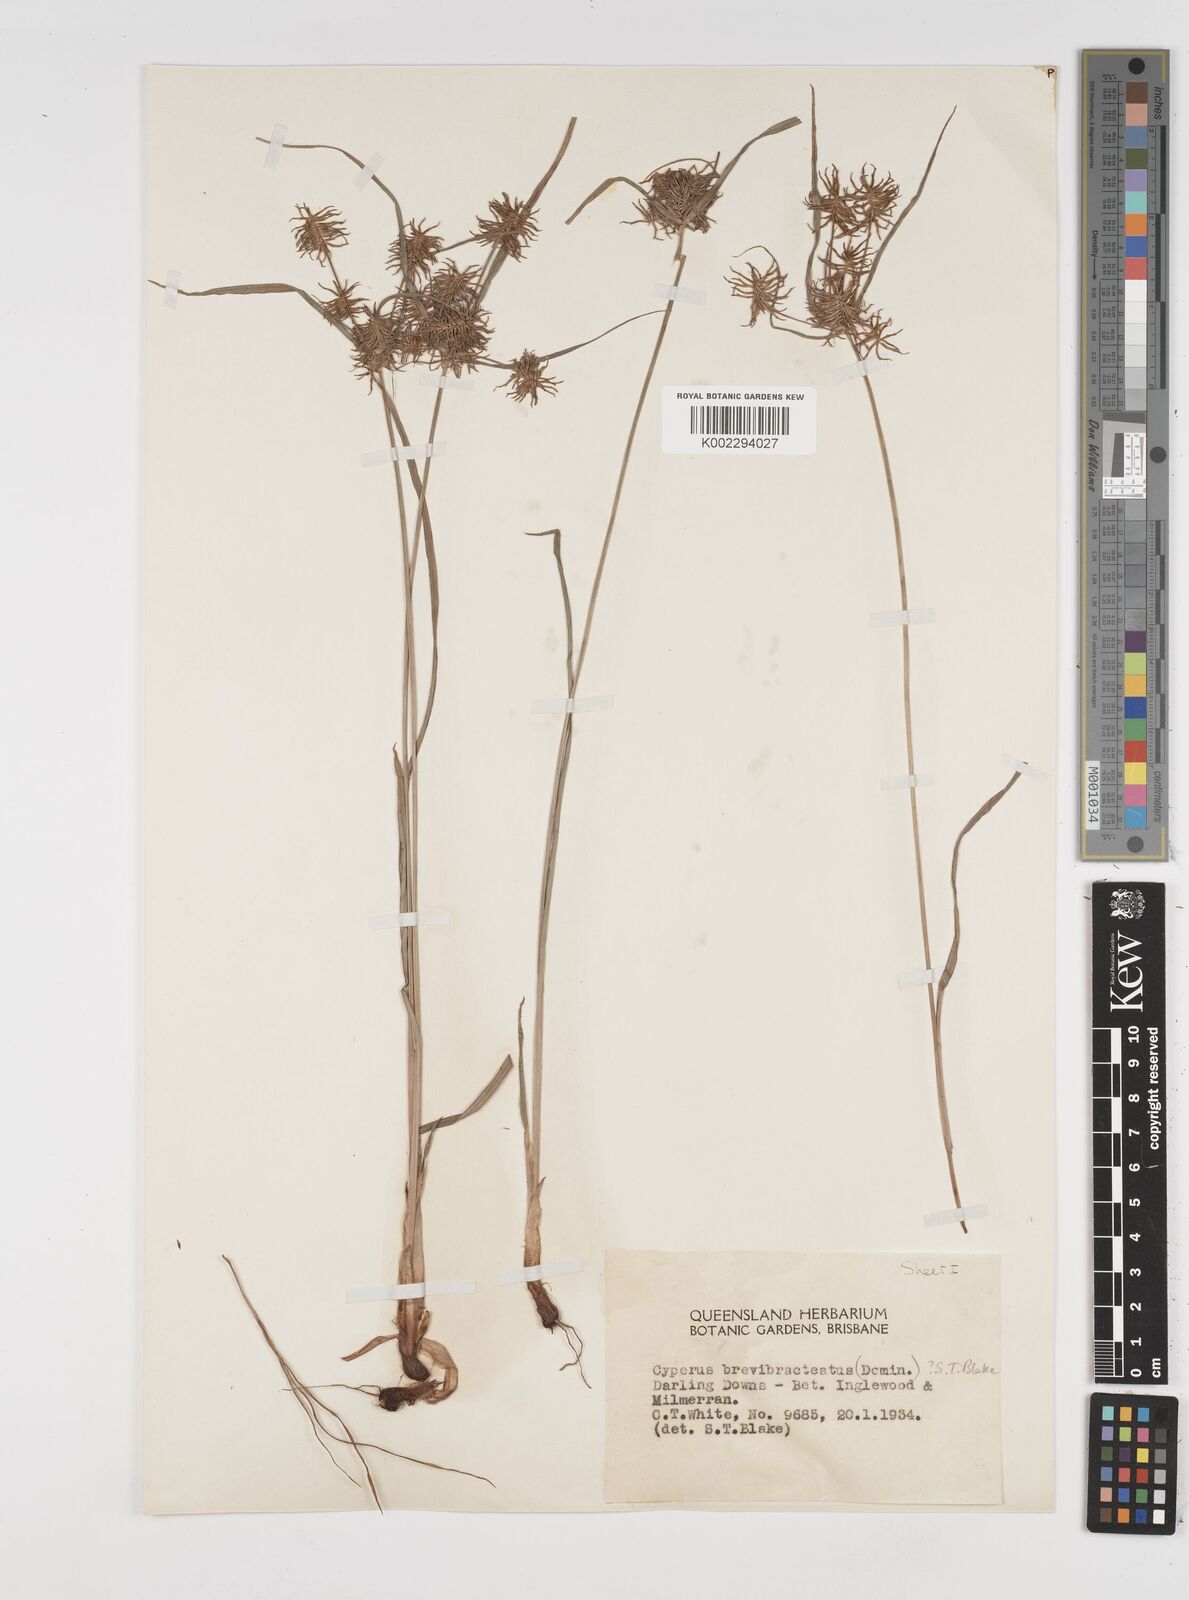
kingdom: Plantae
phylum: Tracheophyta
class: Liliopsida
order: Poales
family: Cyperaceae
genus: Cyperus
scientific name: Cyperus dietrichiae
